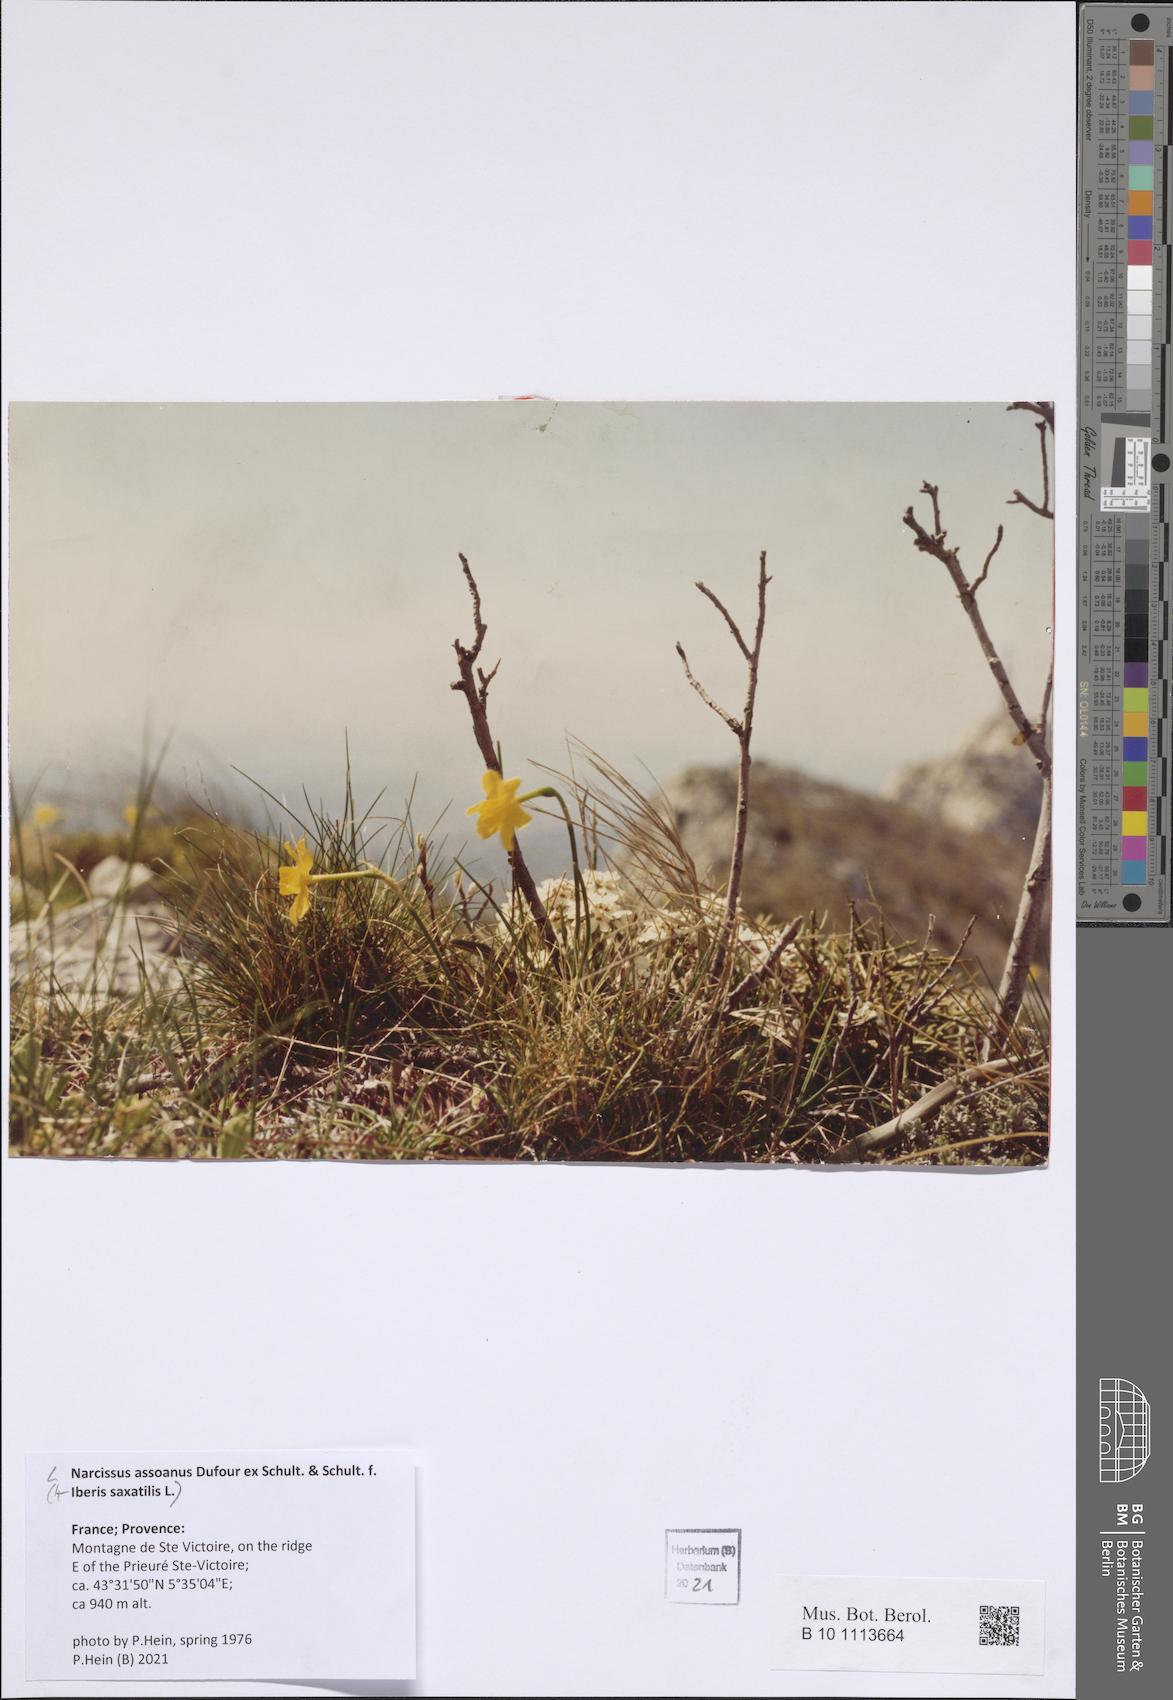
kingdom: Plantae
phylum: Tracheophyta
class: Liliopsida
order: Asparagales
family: Amaryllidaceae
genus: Narcissus
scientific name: Narcissus assoanus
